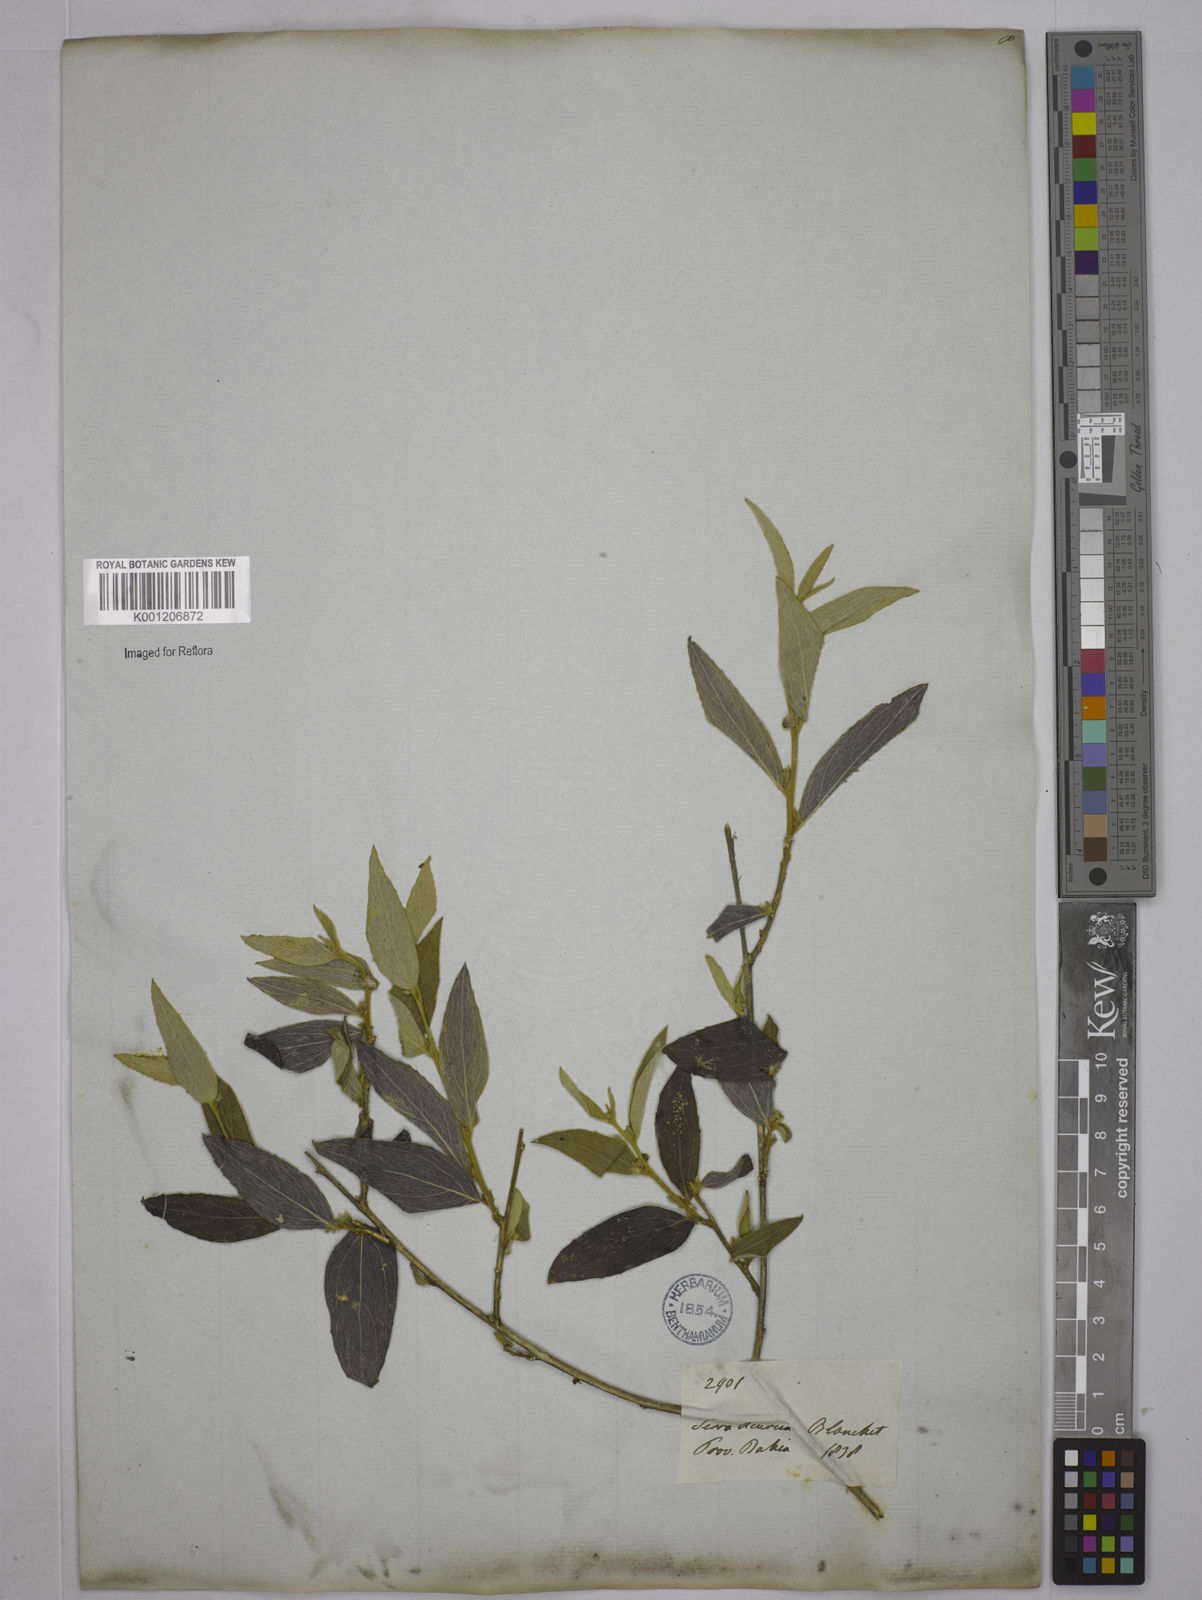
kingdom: Plantae
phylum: Tracheophyta
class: Magnoliopsida
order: Malpighiales
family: Euphorbiaceae
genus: Ditaxis
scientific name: Ditaxis simoniana
